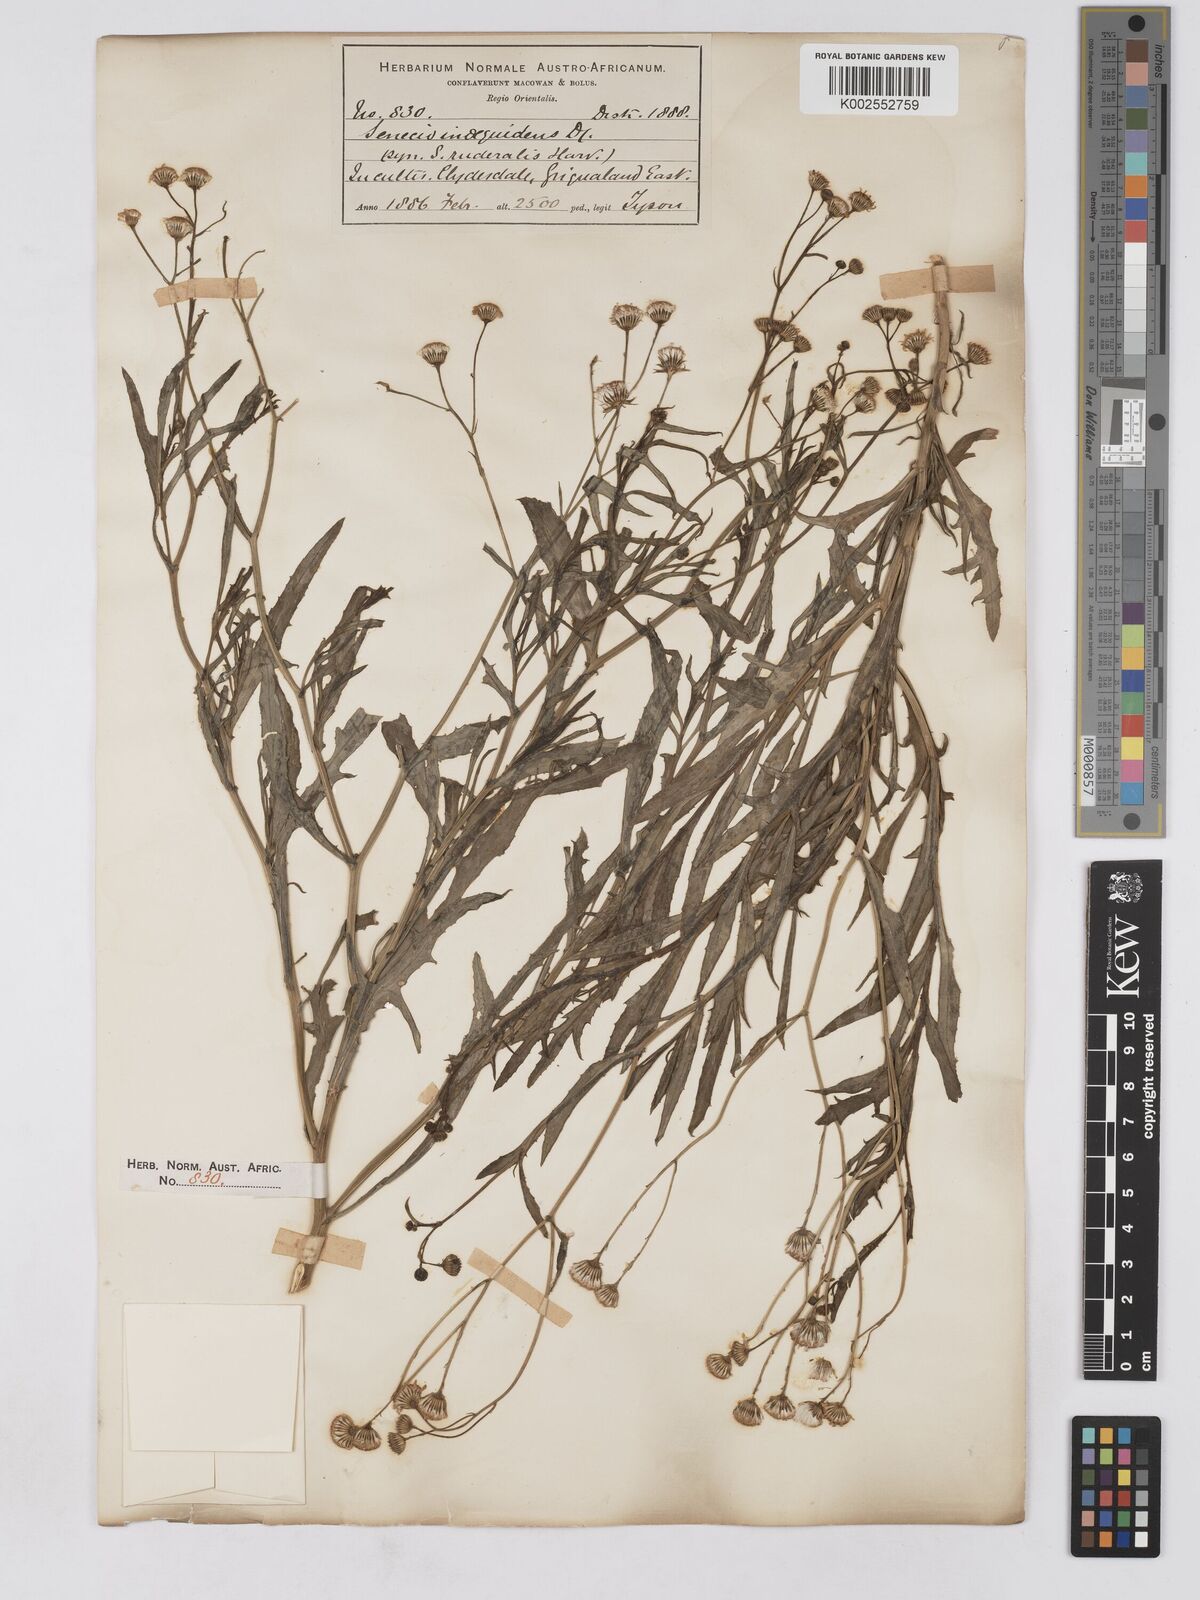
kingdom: Plantae
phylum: Tracheophyta
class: Magnoliopsida
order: Asterales
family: Asteraceae
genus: Senecio
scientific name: Senecio madagascariensis
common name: Madagascar ragwort
